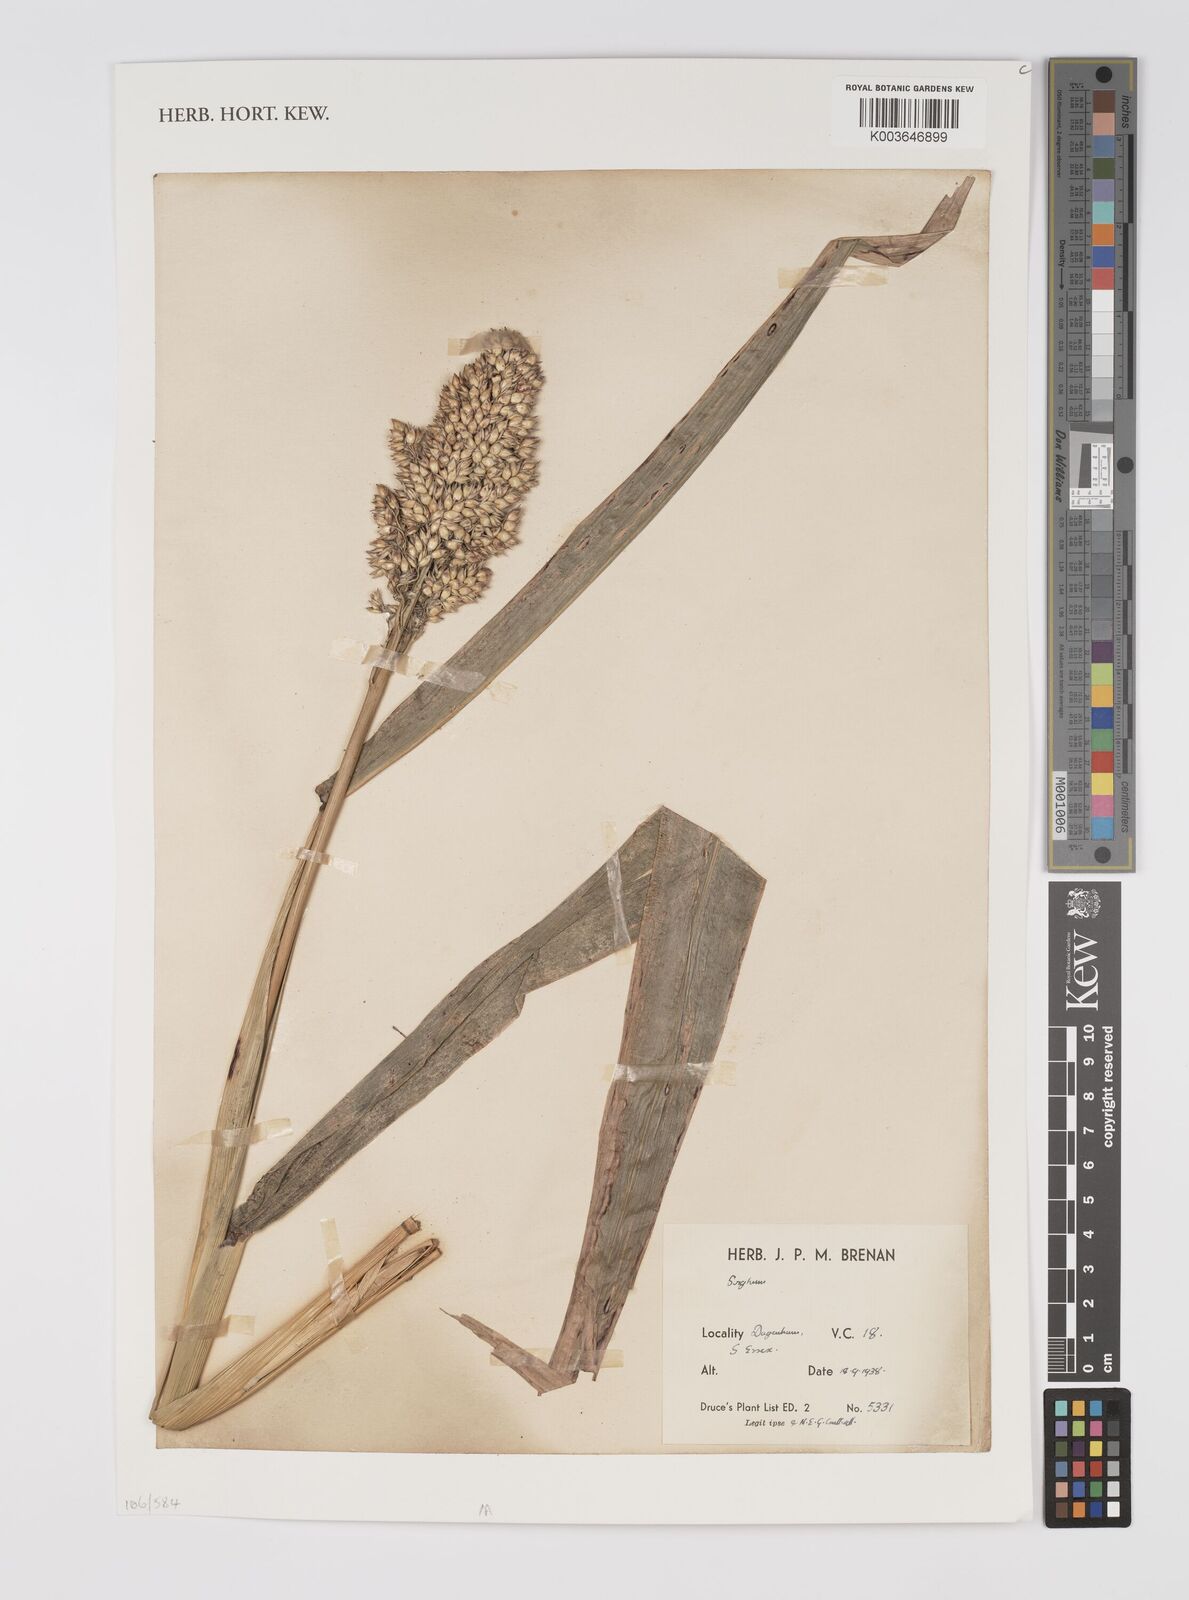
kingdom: Plantae
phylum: Tracheophyta
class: Liliopsida
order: Poales
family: Poaceae
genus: Sorghum
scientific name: Sorghum
